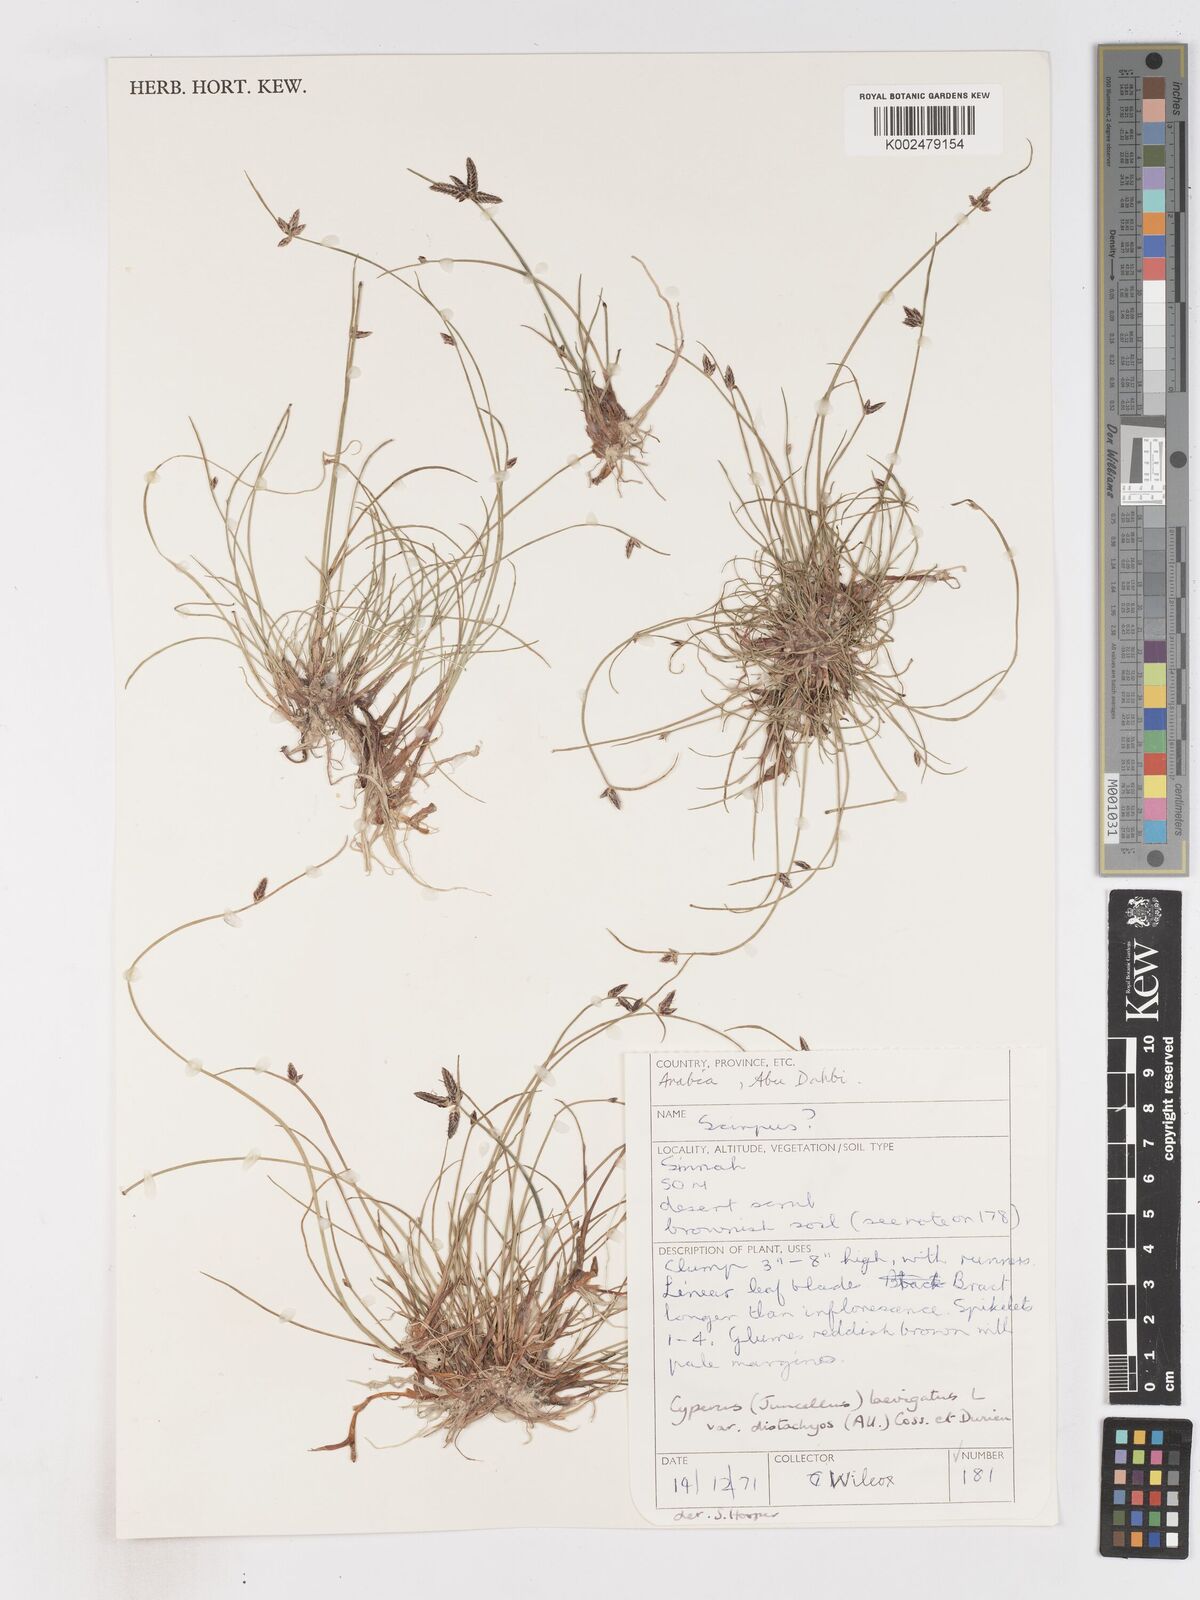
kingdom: Plantae
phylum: Tracheophyta
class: Liliopsida
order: Poales
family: Cyperaceae
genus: Cyperus
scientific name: Cyperus laevigatus
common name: Smooth flat sedge
